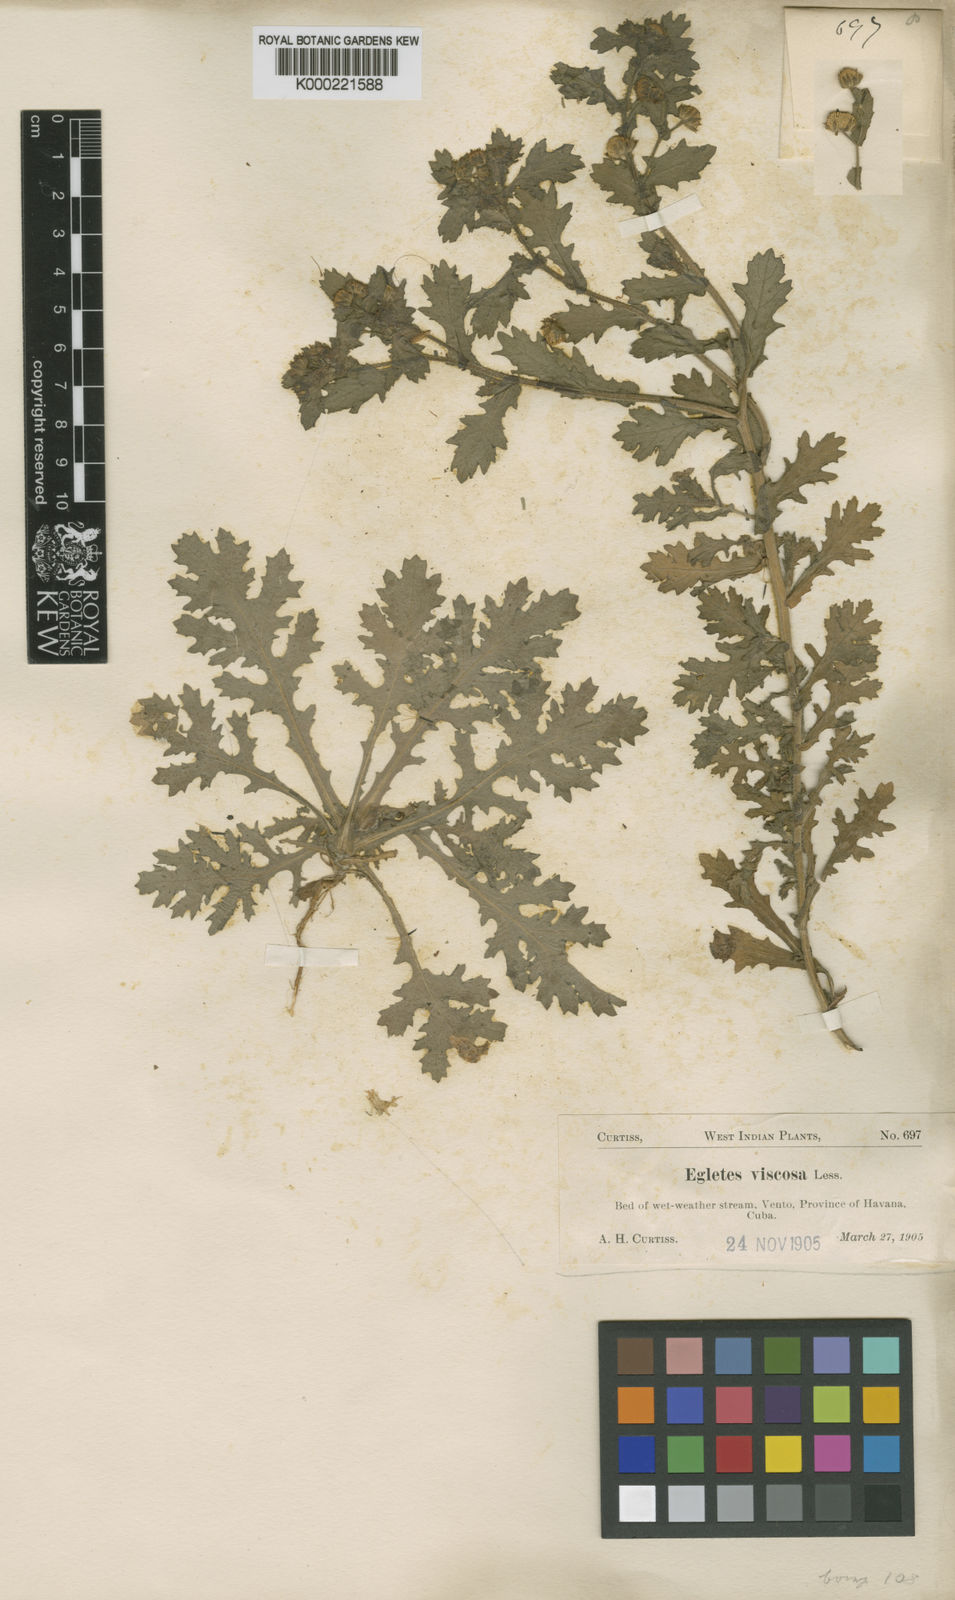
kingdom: Plantae
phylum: Tracheophyta
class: Magnoliopsida
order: Asterales
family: Asteraceae
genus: Egletes
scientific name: Egletes viscosa
